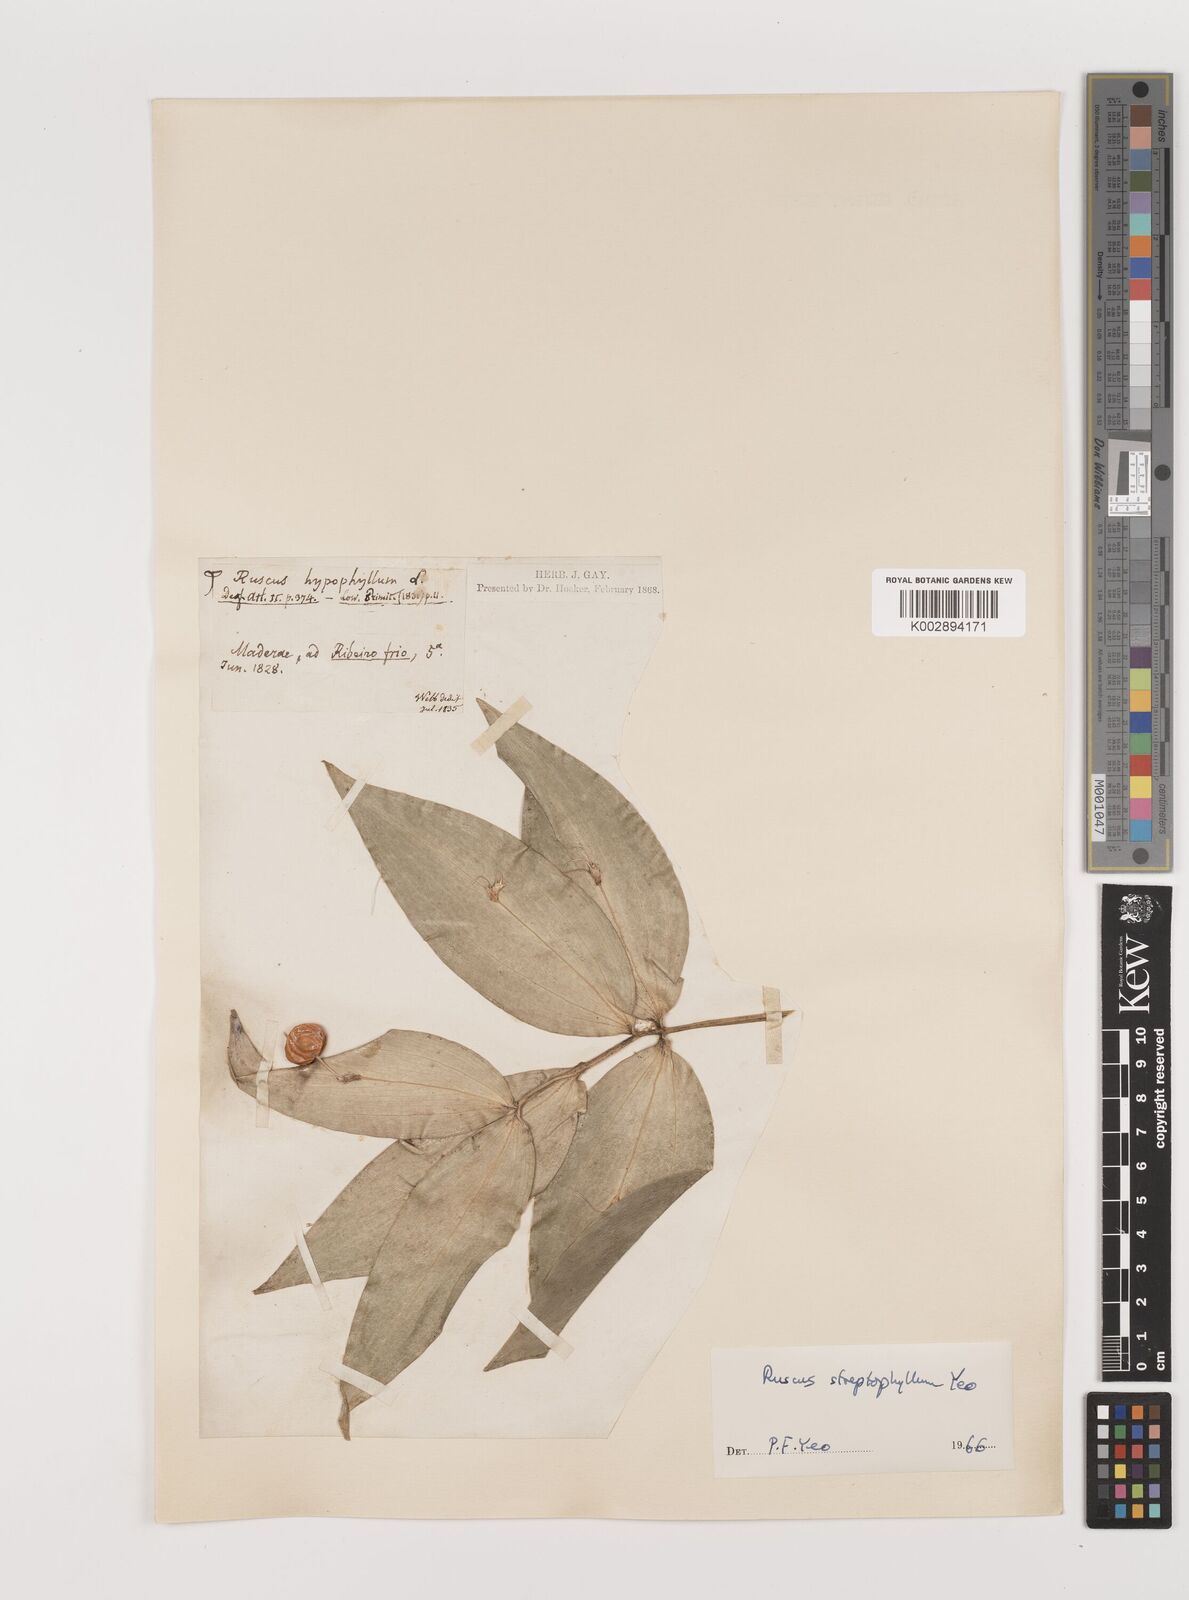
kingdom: Plantae
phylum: Tracheophyta
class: Liliopsida
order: Asparagales
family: Asparagaceae
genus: Ruscus
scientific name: Ruscus hypophyllum
